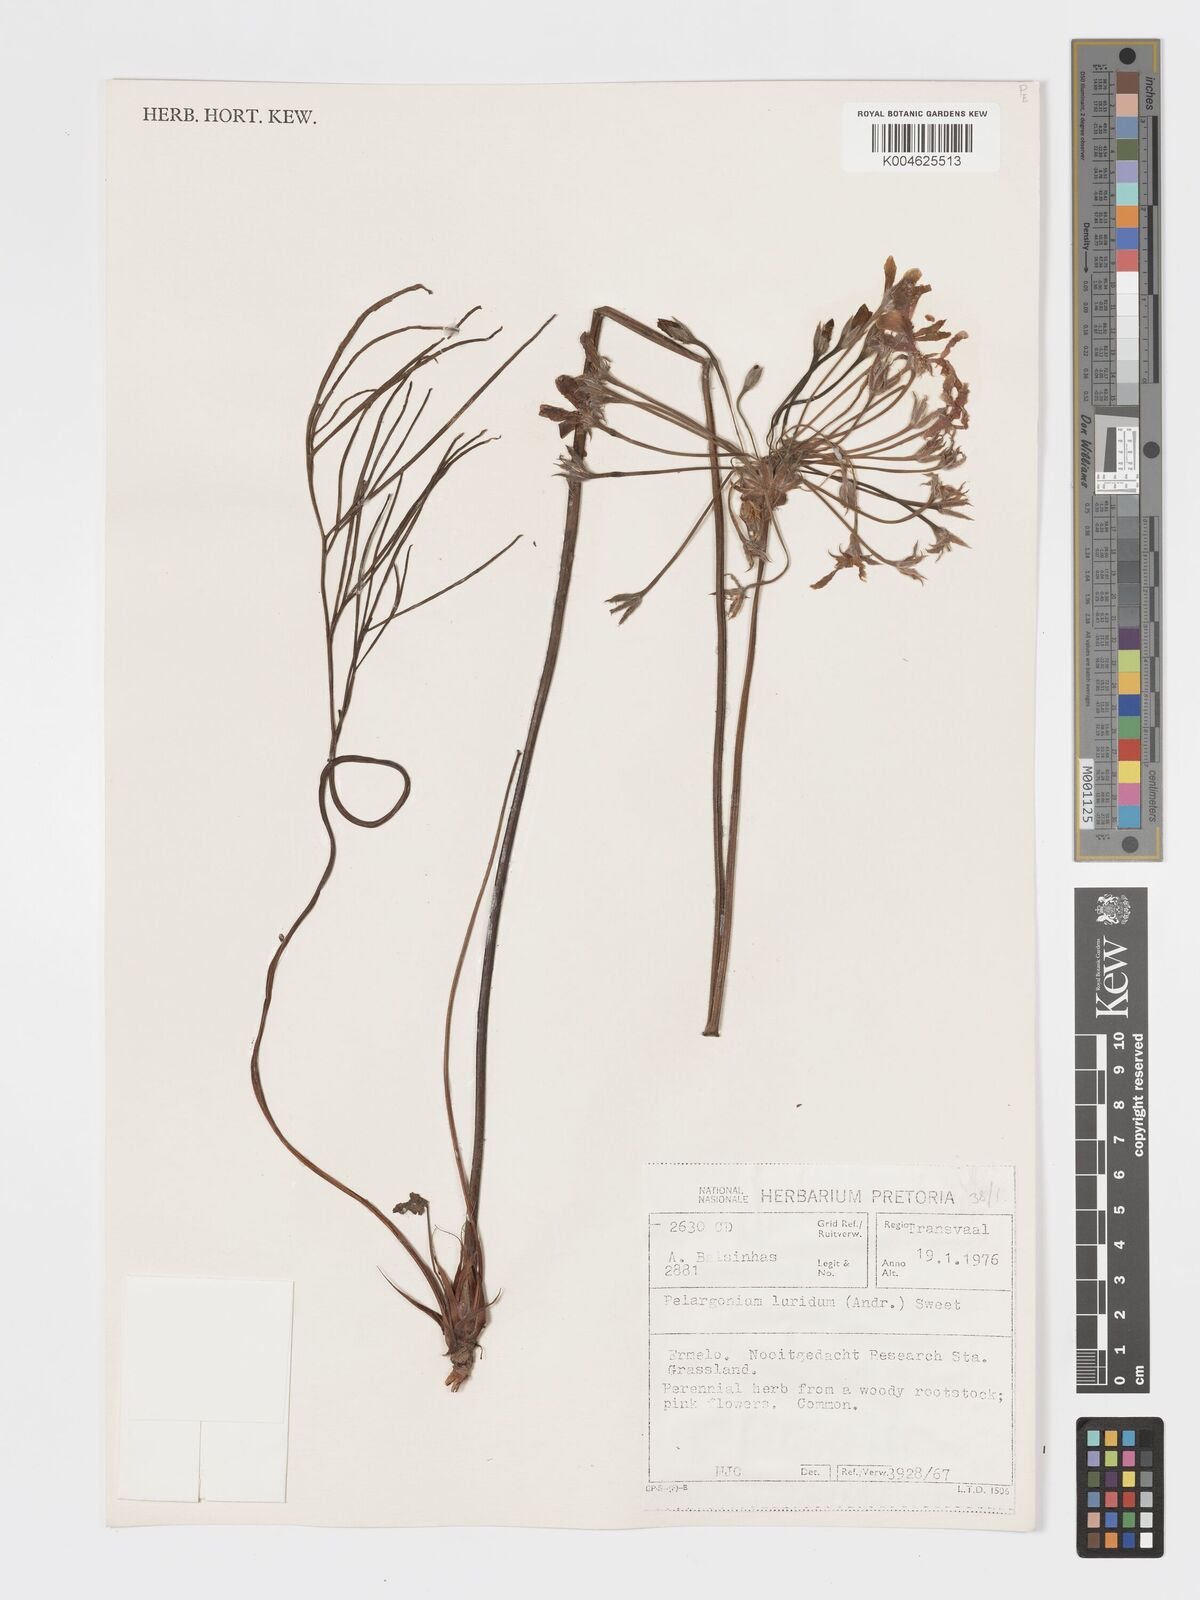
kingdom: Plantae
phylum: Tracheophyta
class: Magnoliopsida
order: Geraniales
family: Geraniaceae
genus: Pelargonium
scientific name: Pelargonium luridum
